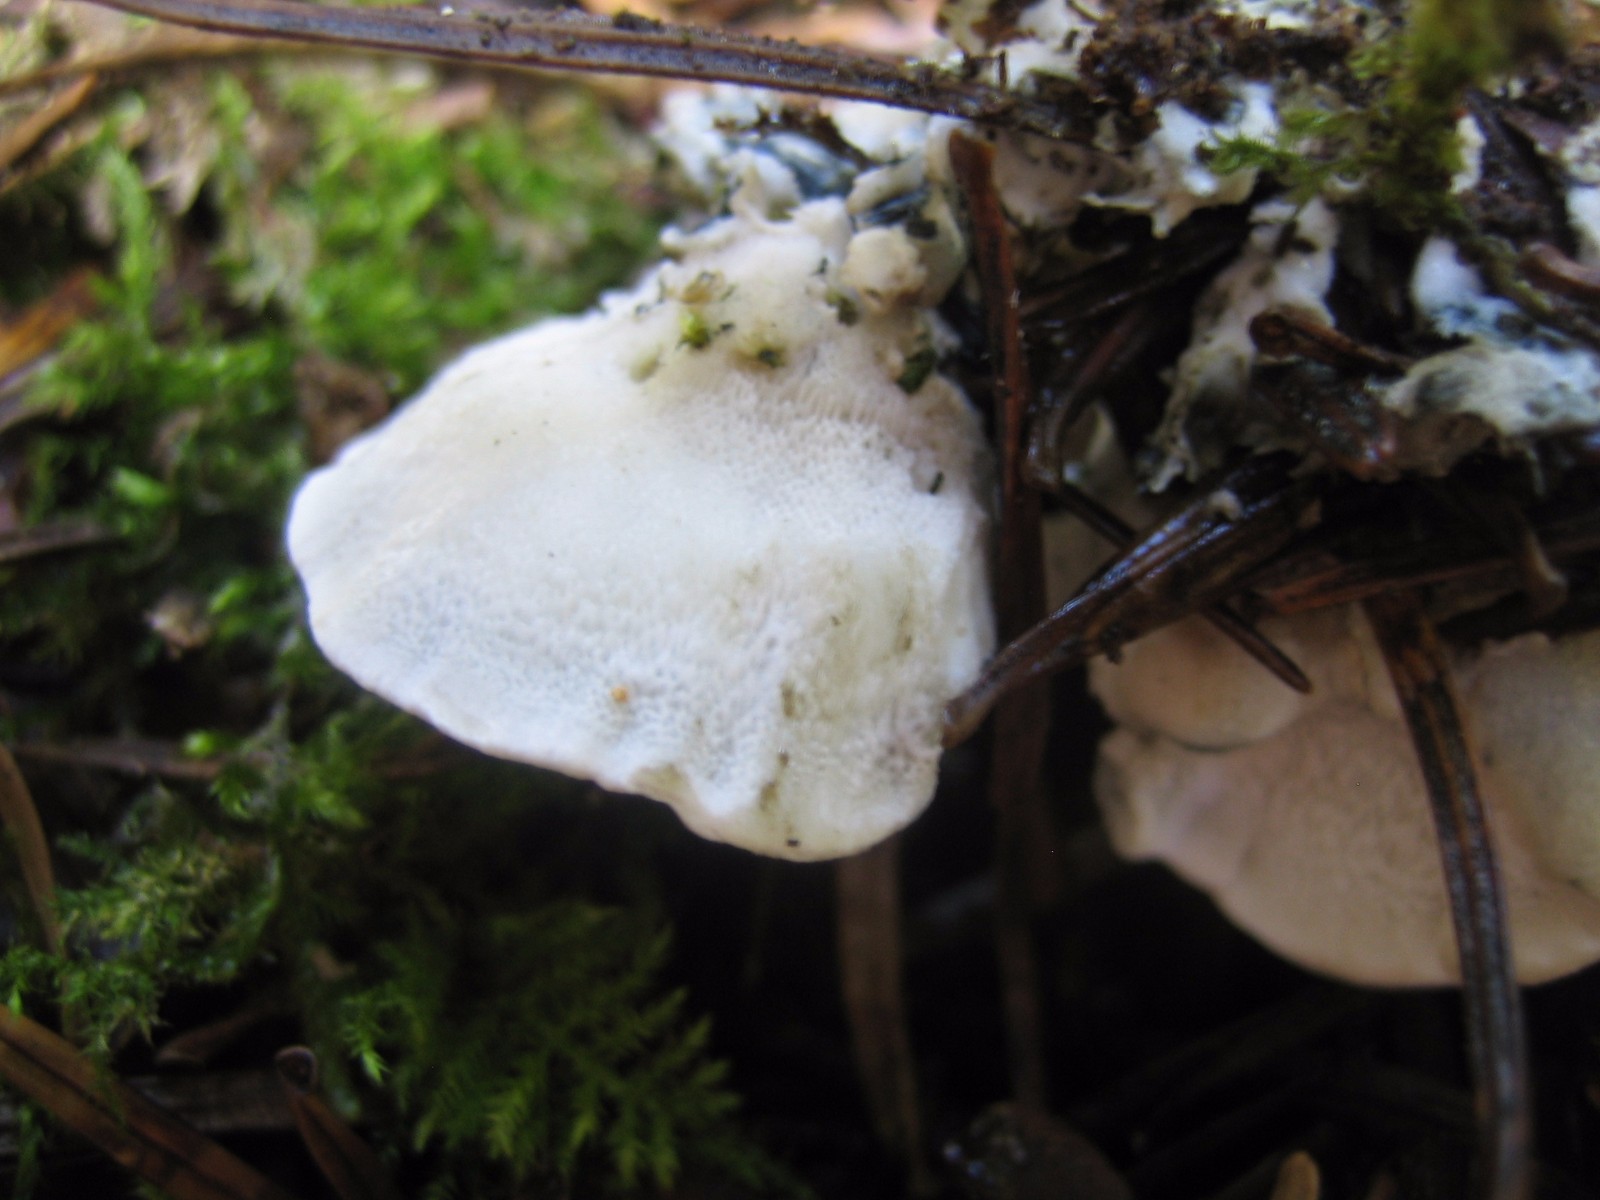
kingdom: Fungi
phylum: Basidiomycota
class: Agaricomycetes
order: Polyporales
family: Polyporaceae
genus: Cyanosporus
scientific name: Cyanosporus caesius
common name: blålig kødporesvamp
